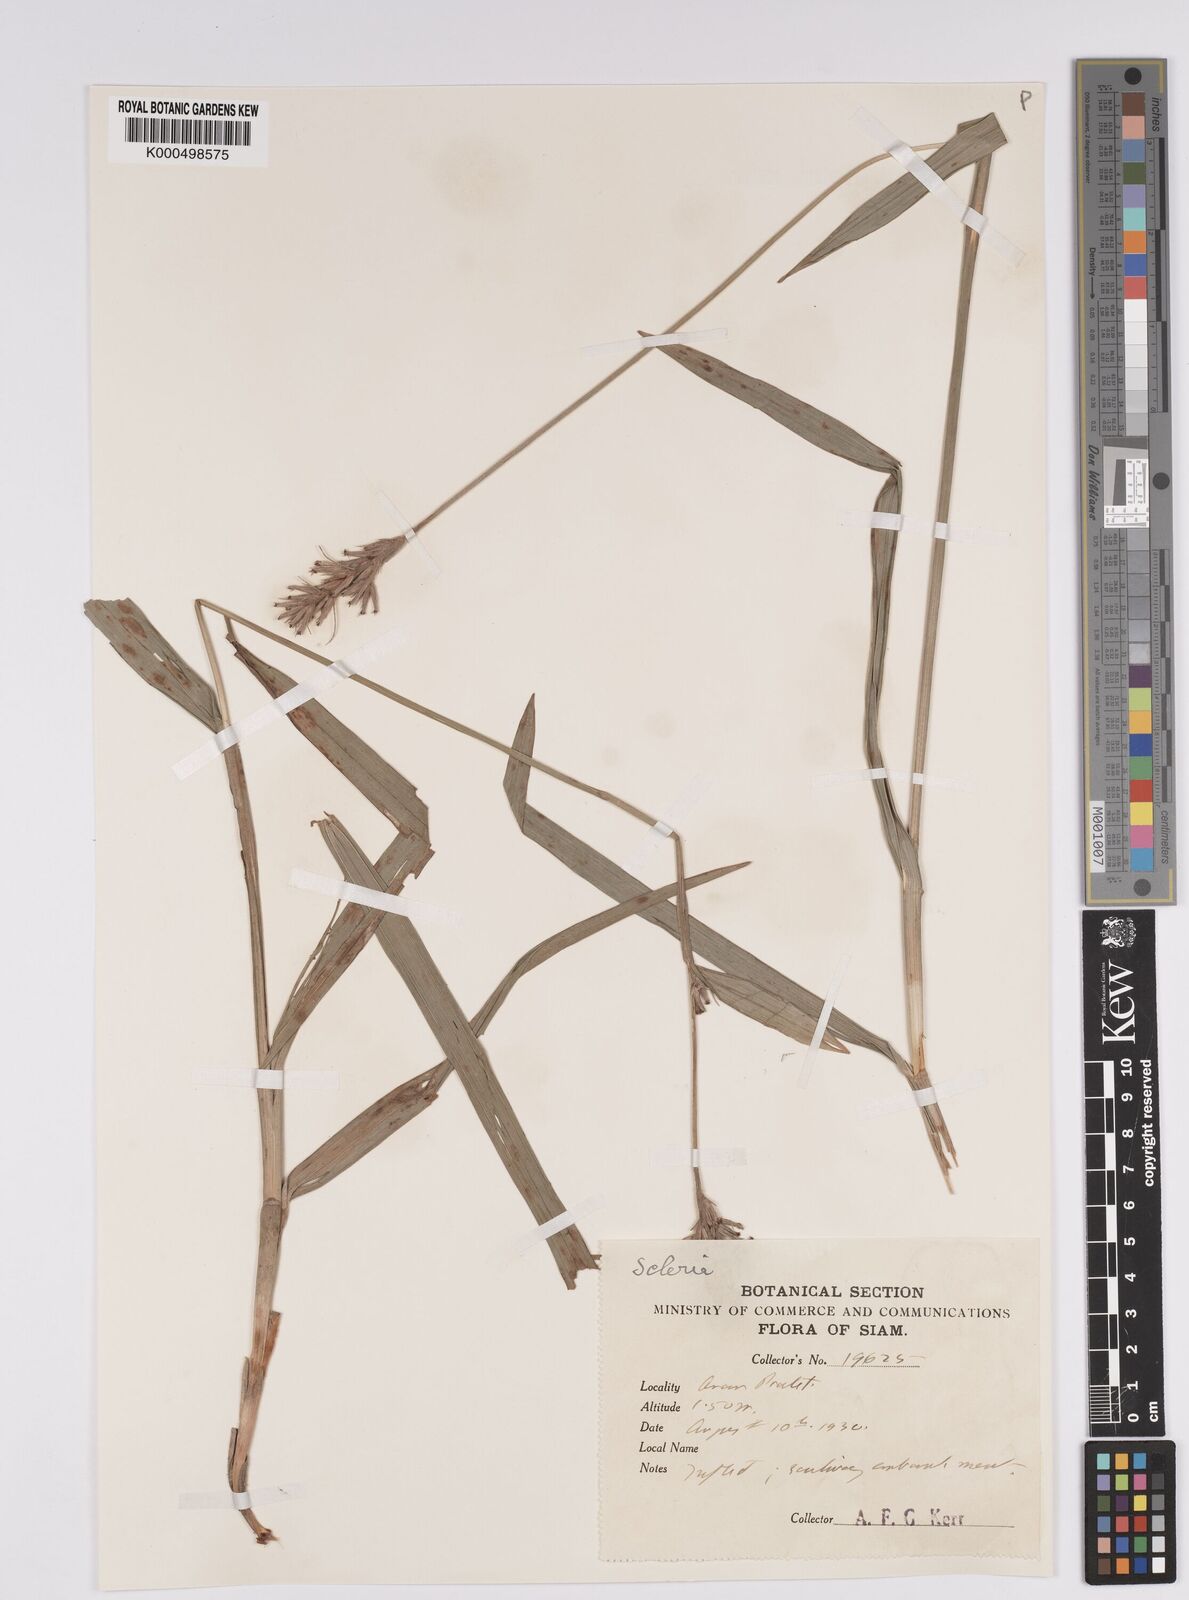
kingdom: Plantae
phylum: Tracheophyta
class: Liliopsida
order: Poales
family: Cyperaceae
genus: Scleria
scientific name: Scleria tonkinensis
